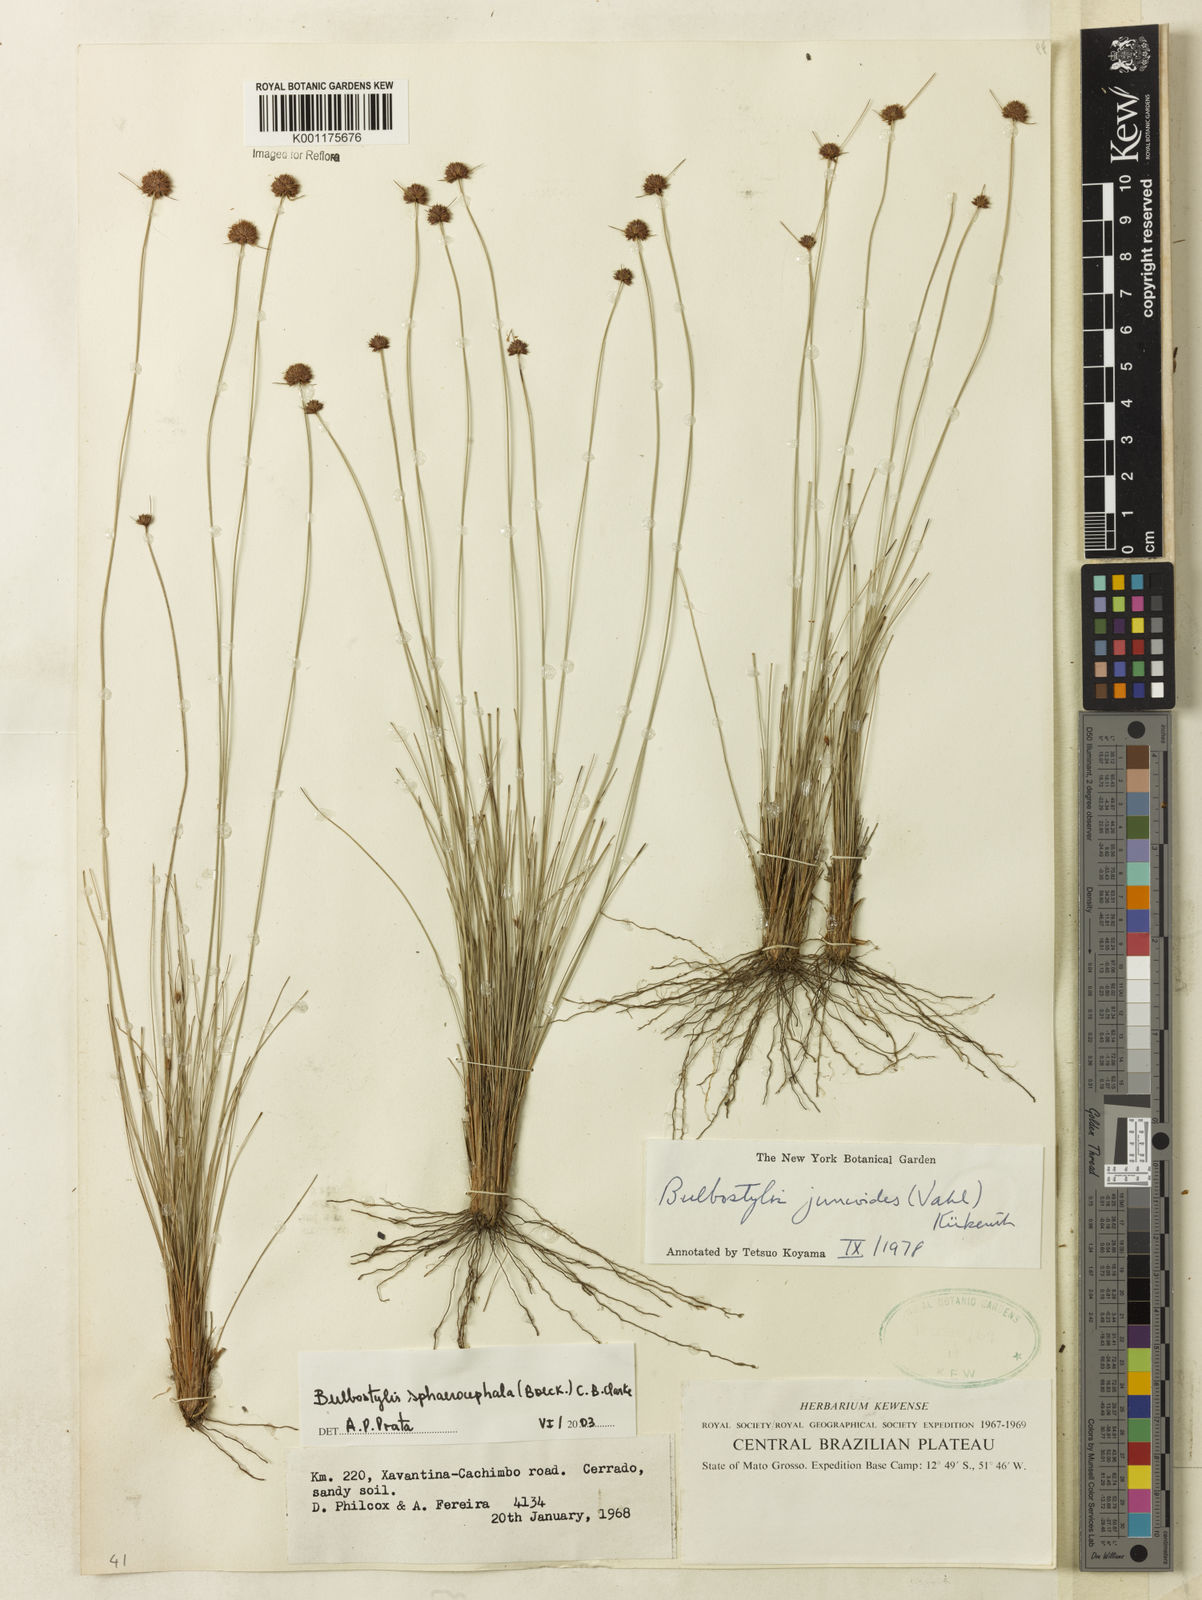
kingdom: Plantae
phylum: Tracheophyta
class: Liliopsida
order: Poales
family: Cyperaceae
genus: Bulbostylis
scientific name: Bulbostylis sphaerocephala
